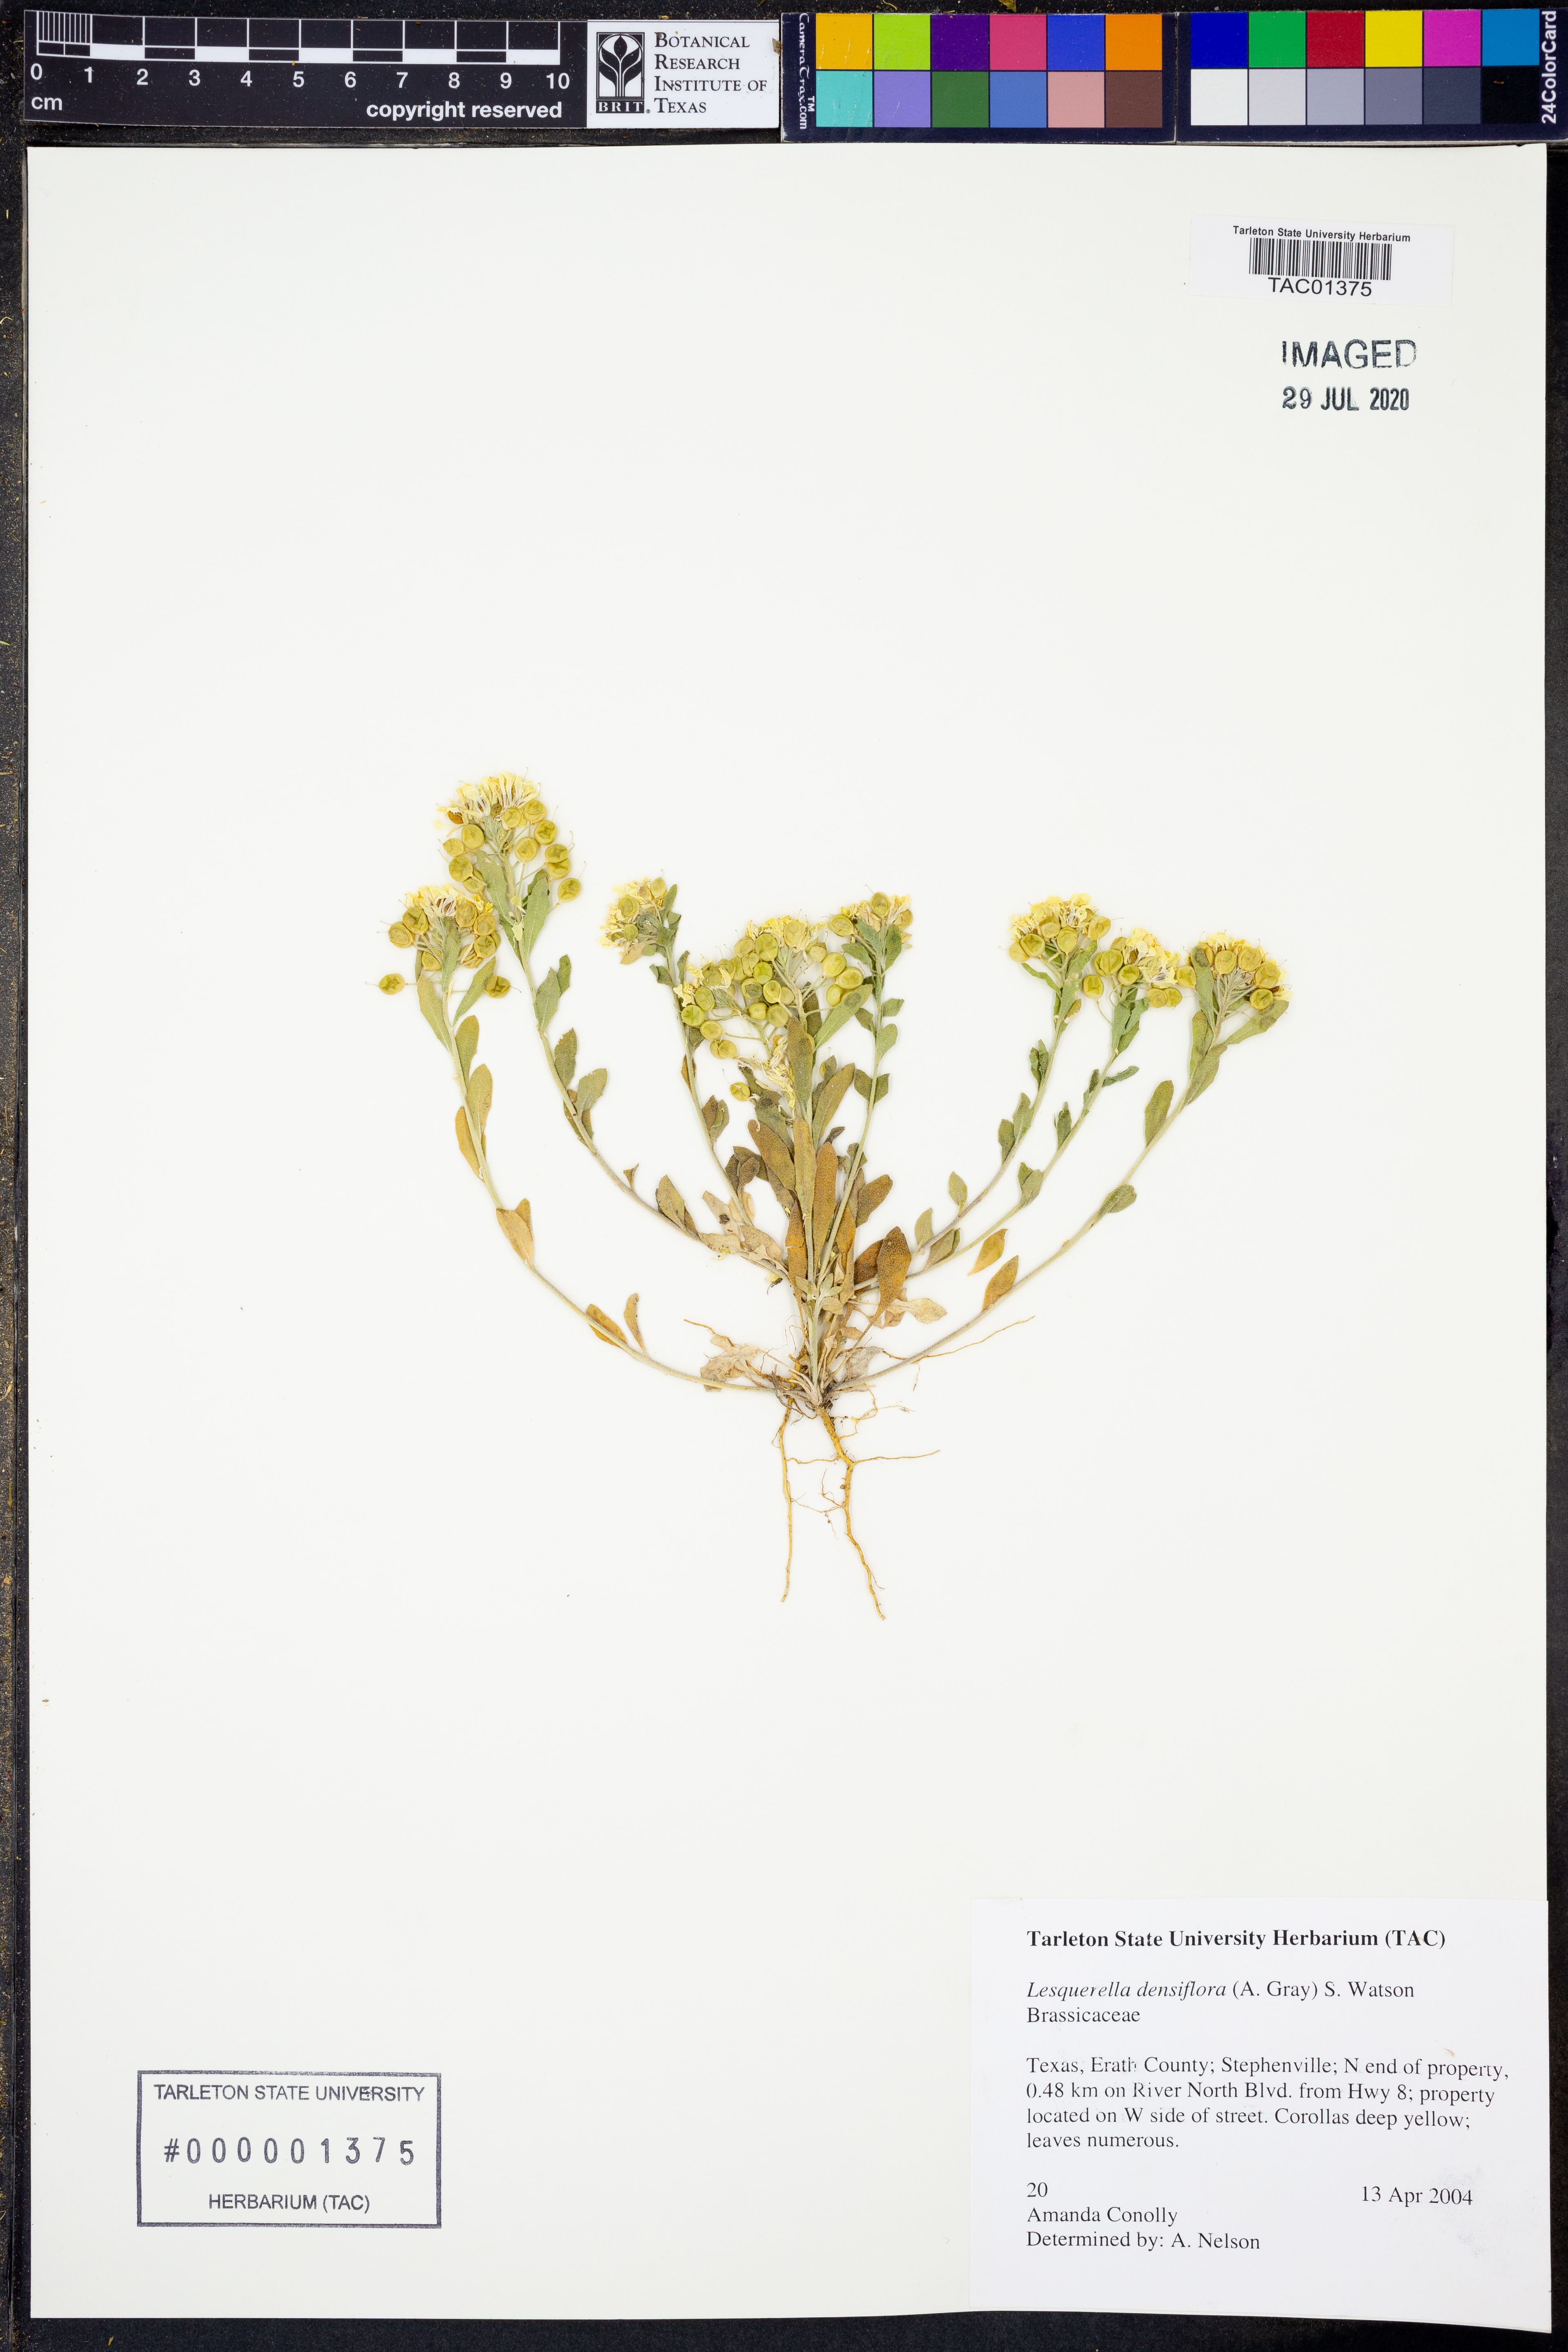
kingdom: Plantae
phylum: Tracheophyta
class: Magnoliopsida
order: Brassicales
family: Brassicaceae
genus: Physaria
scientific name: Physaria densiflora
